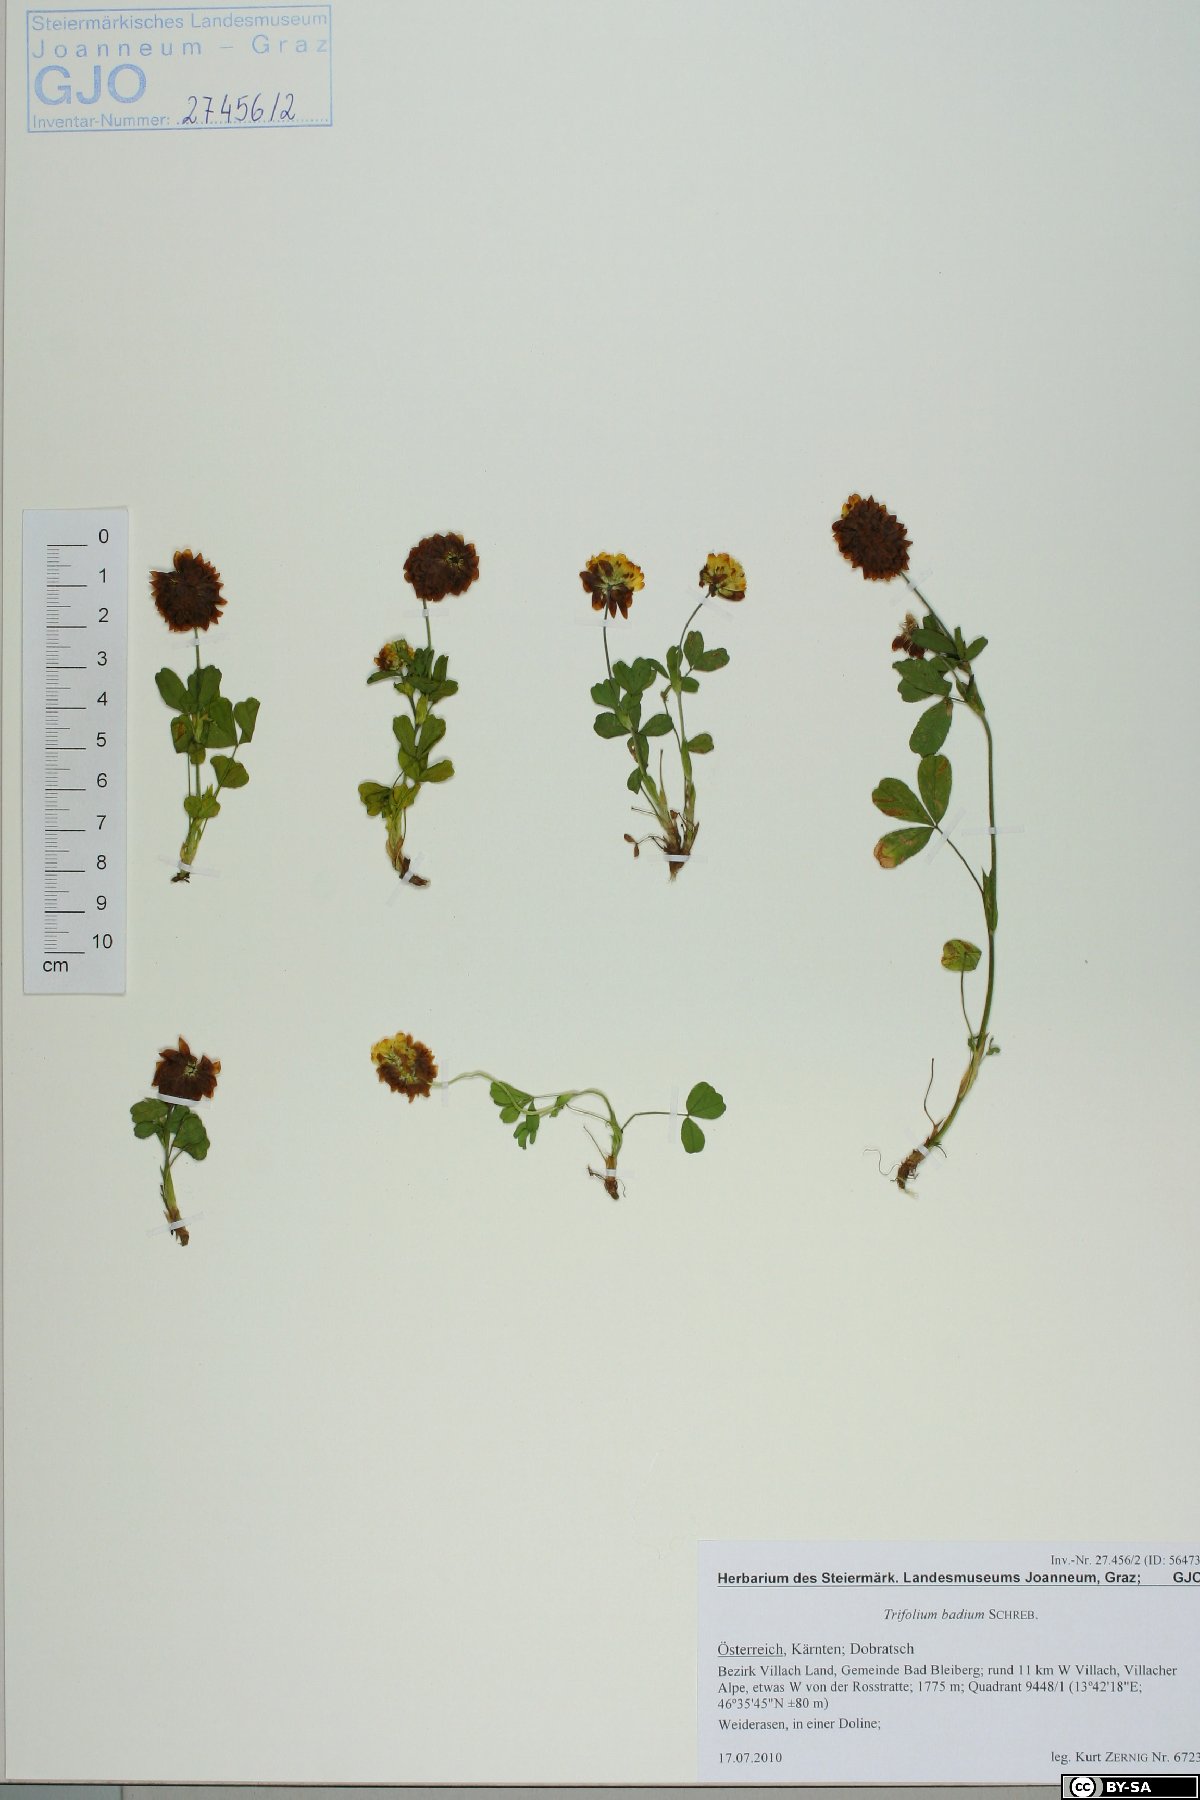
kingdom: Plantae
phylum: Tracheophyta
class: Magnoliopsida
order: Fabales
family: Fabaceae
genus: Trifolium
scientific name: Trifolium badium
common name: Brown clover
